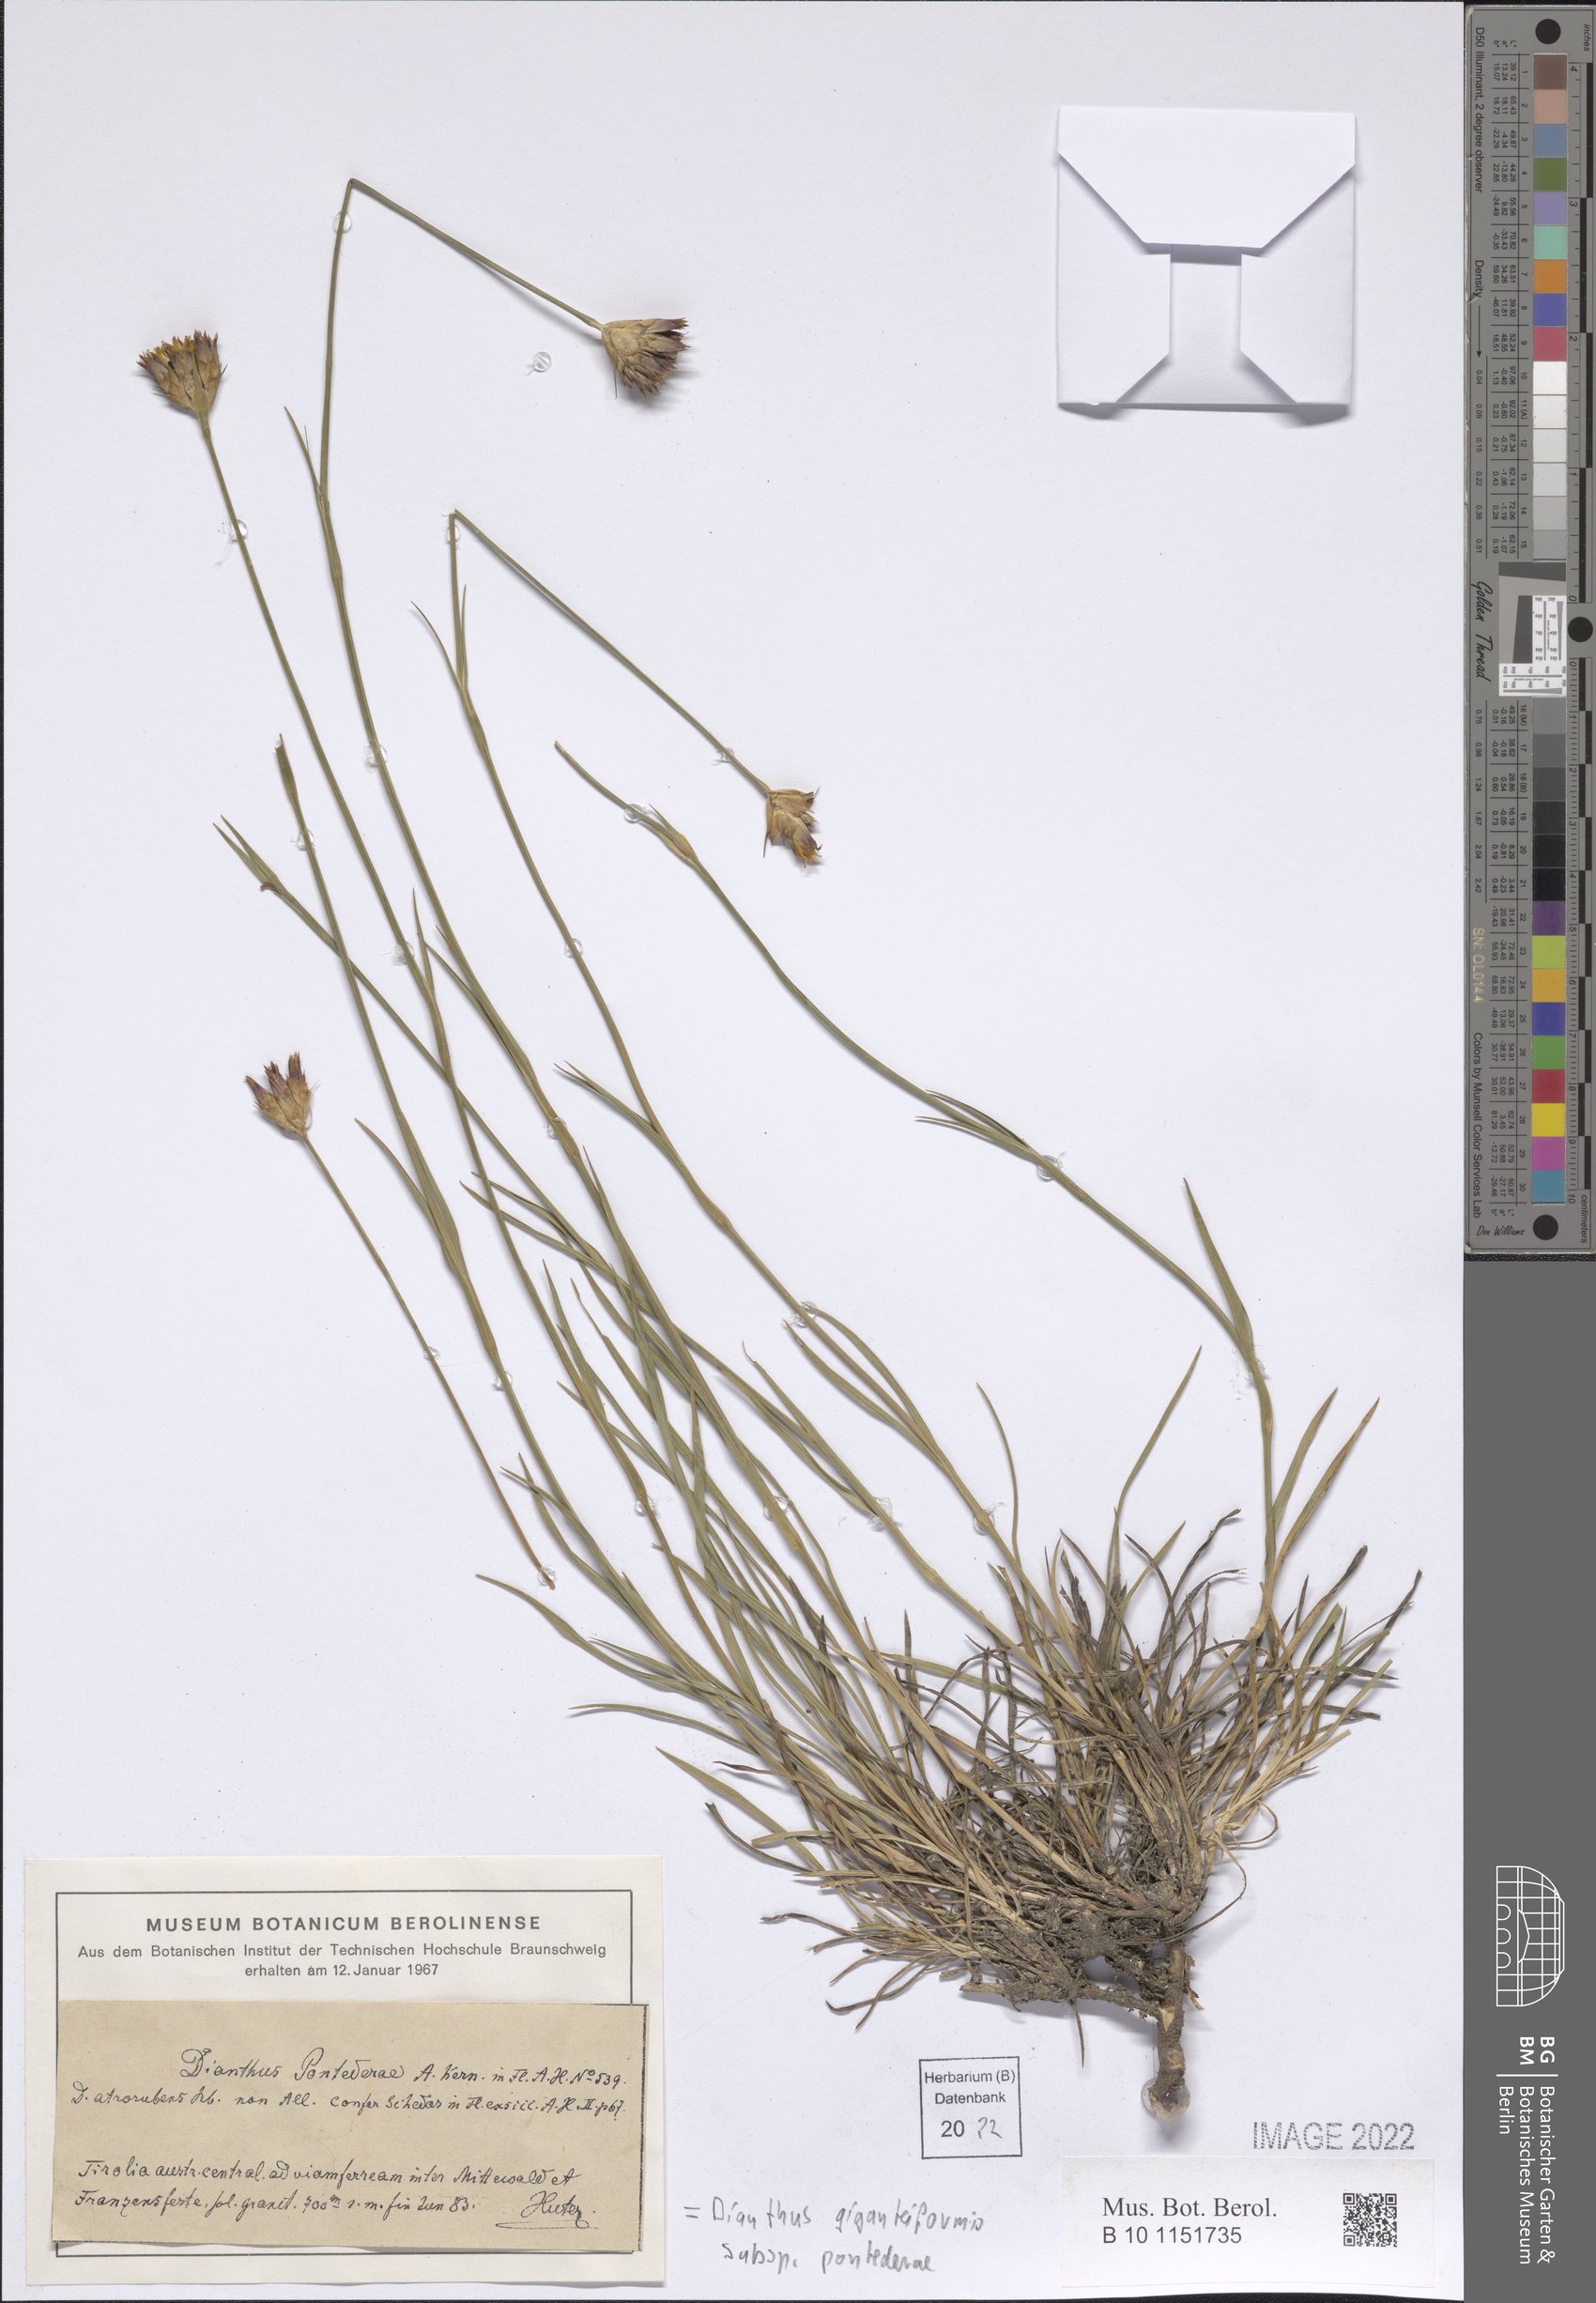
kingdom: Plantae
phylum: Tracheophyta
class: Magnoliopsida
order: Caryophyllales
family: Caryophyllaceae
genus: Dianthus
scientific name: Dianthus pontederae
